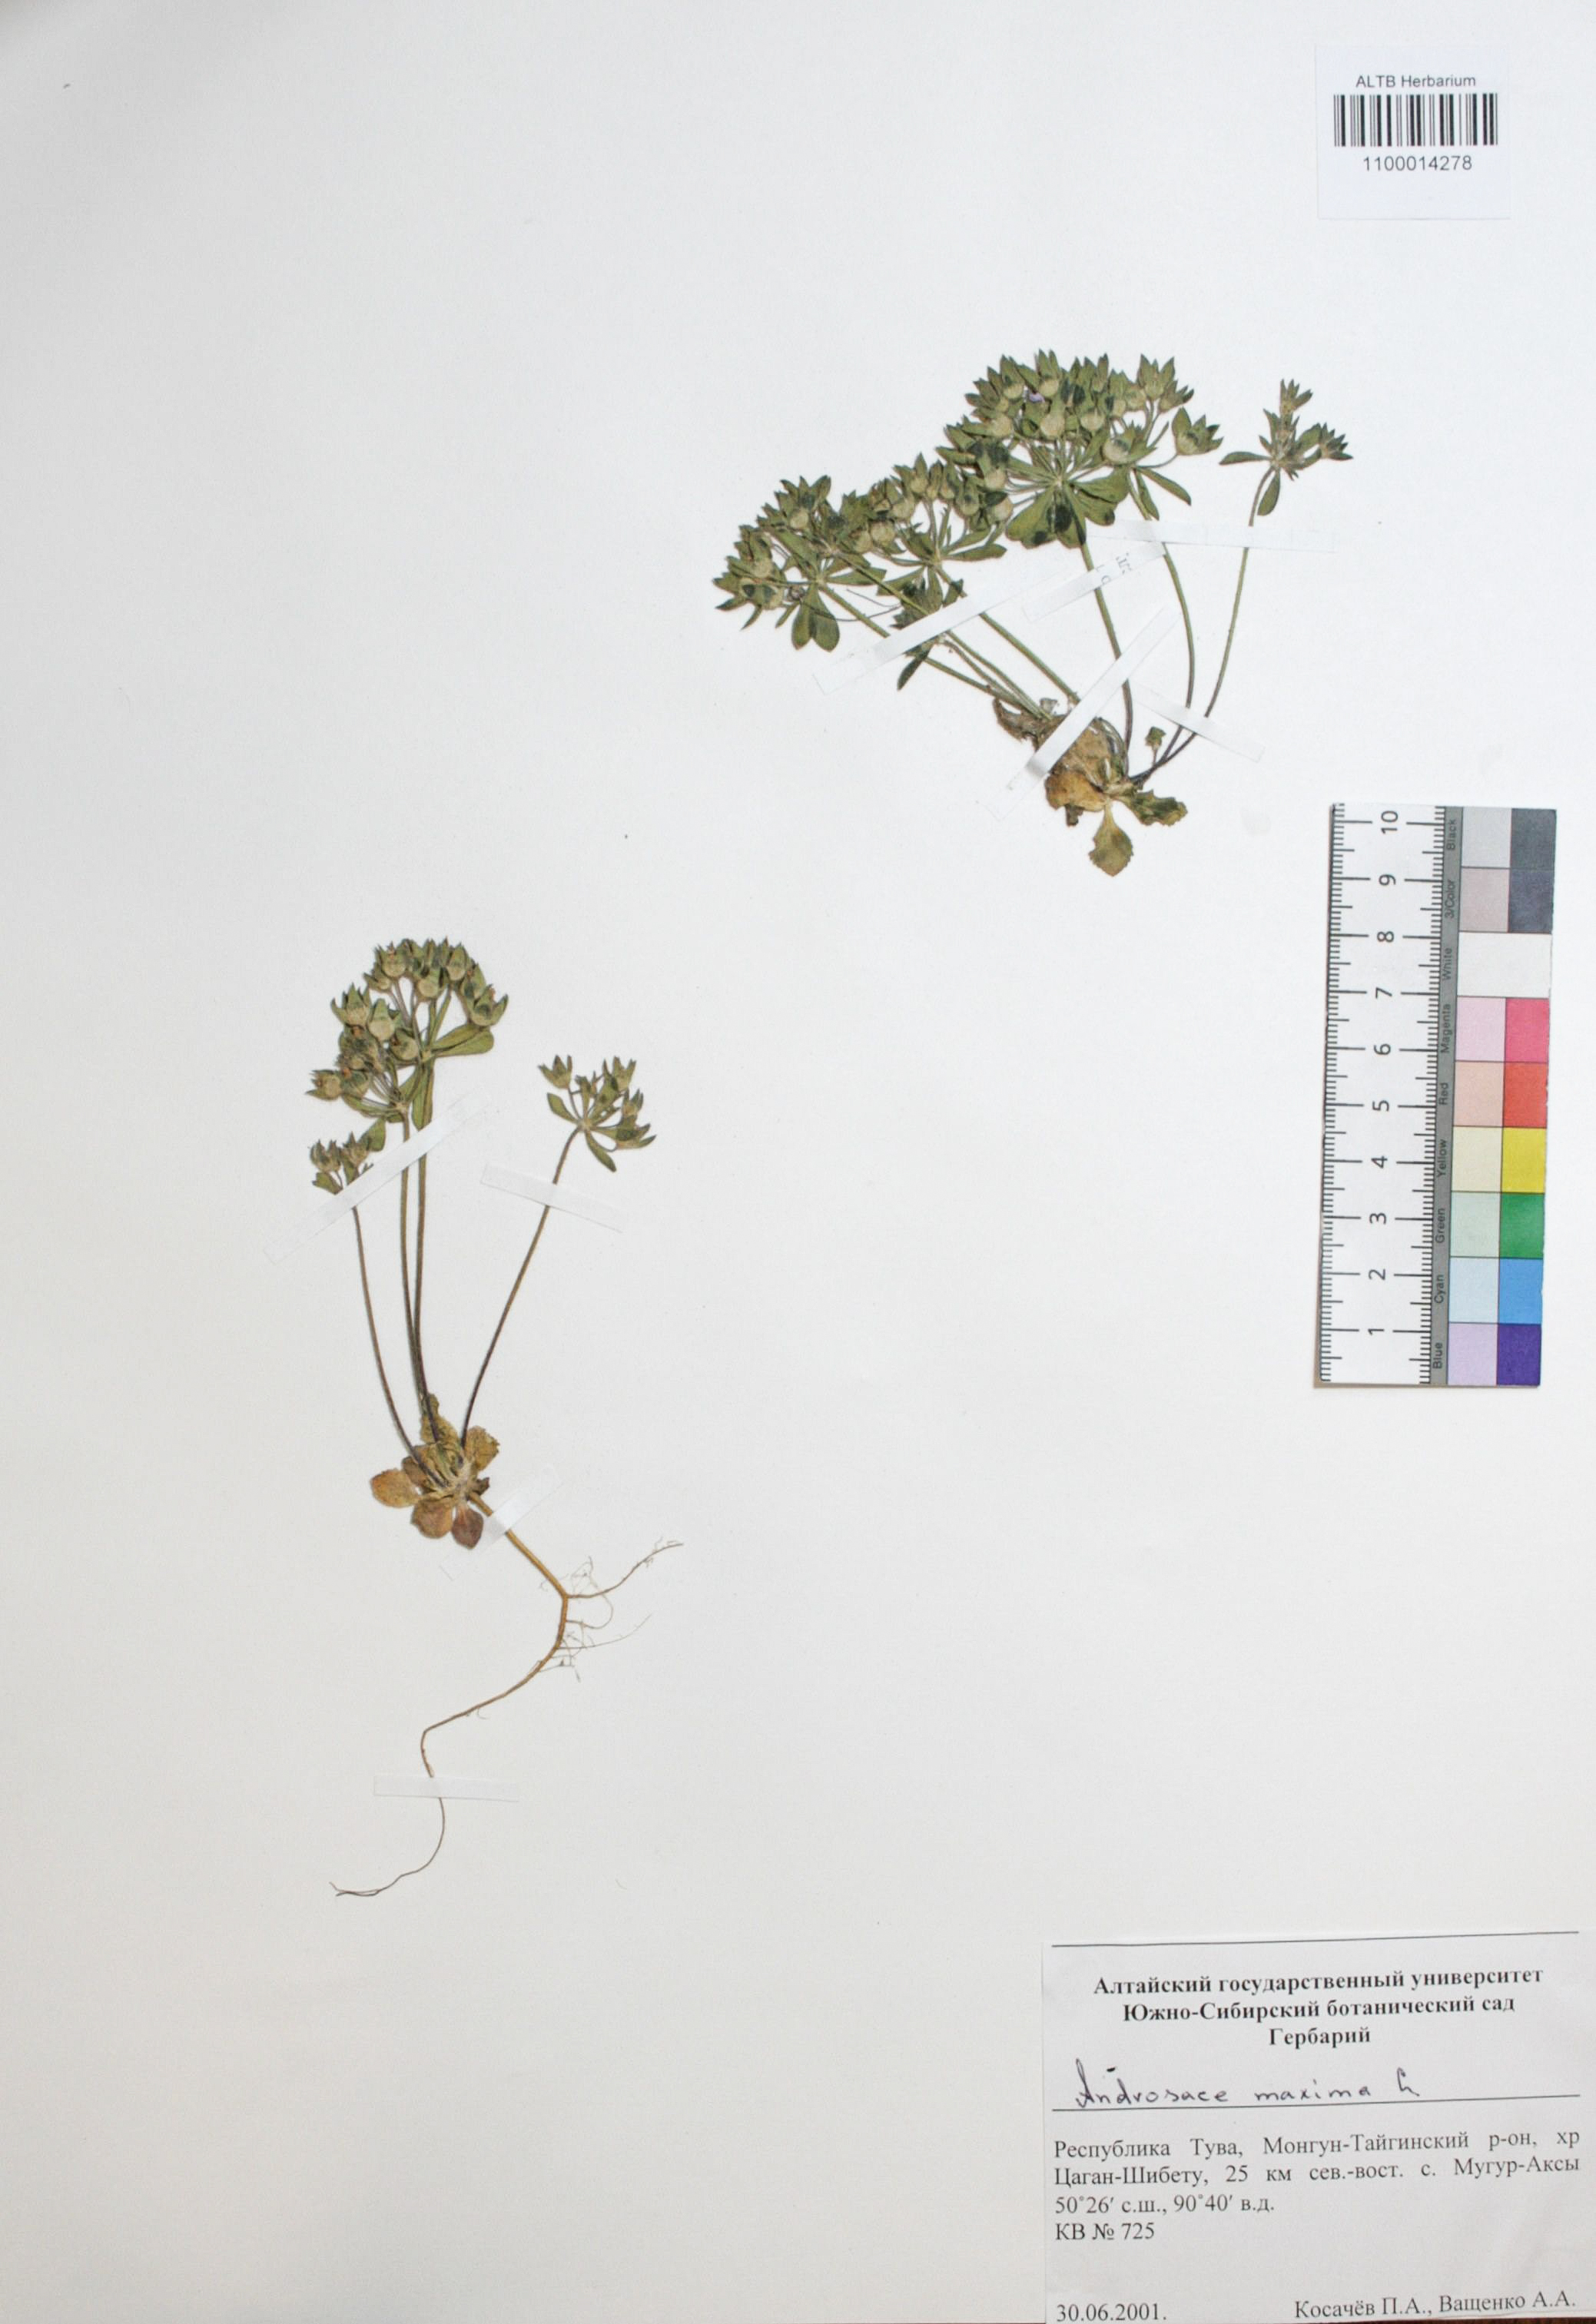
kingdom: Plantae
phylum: Tracheophyta
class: Magnoliopsida
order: Ericales
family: Primulaceae
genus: Androsace
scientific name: Androsace maxima
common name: Annual androsace
